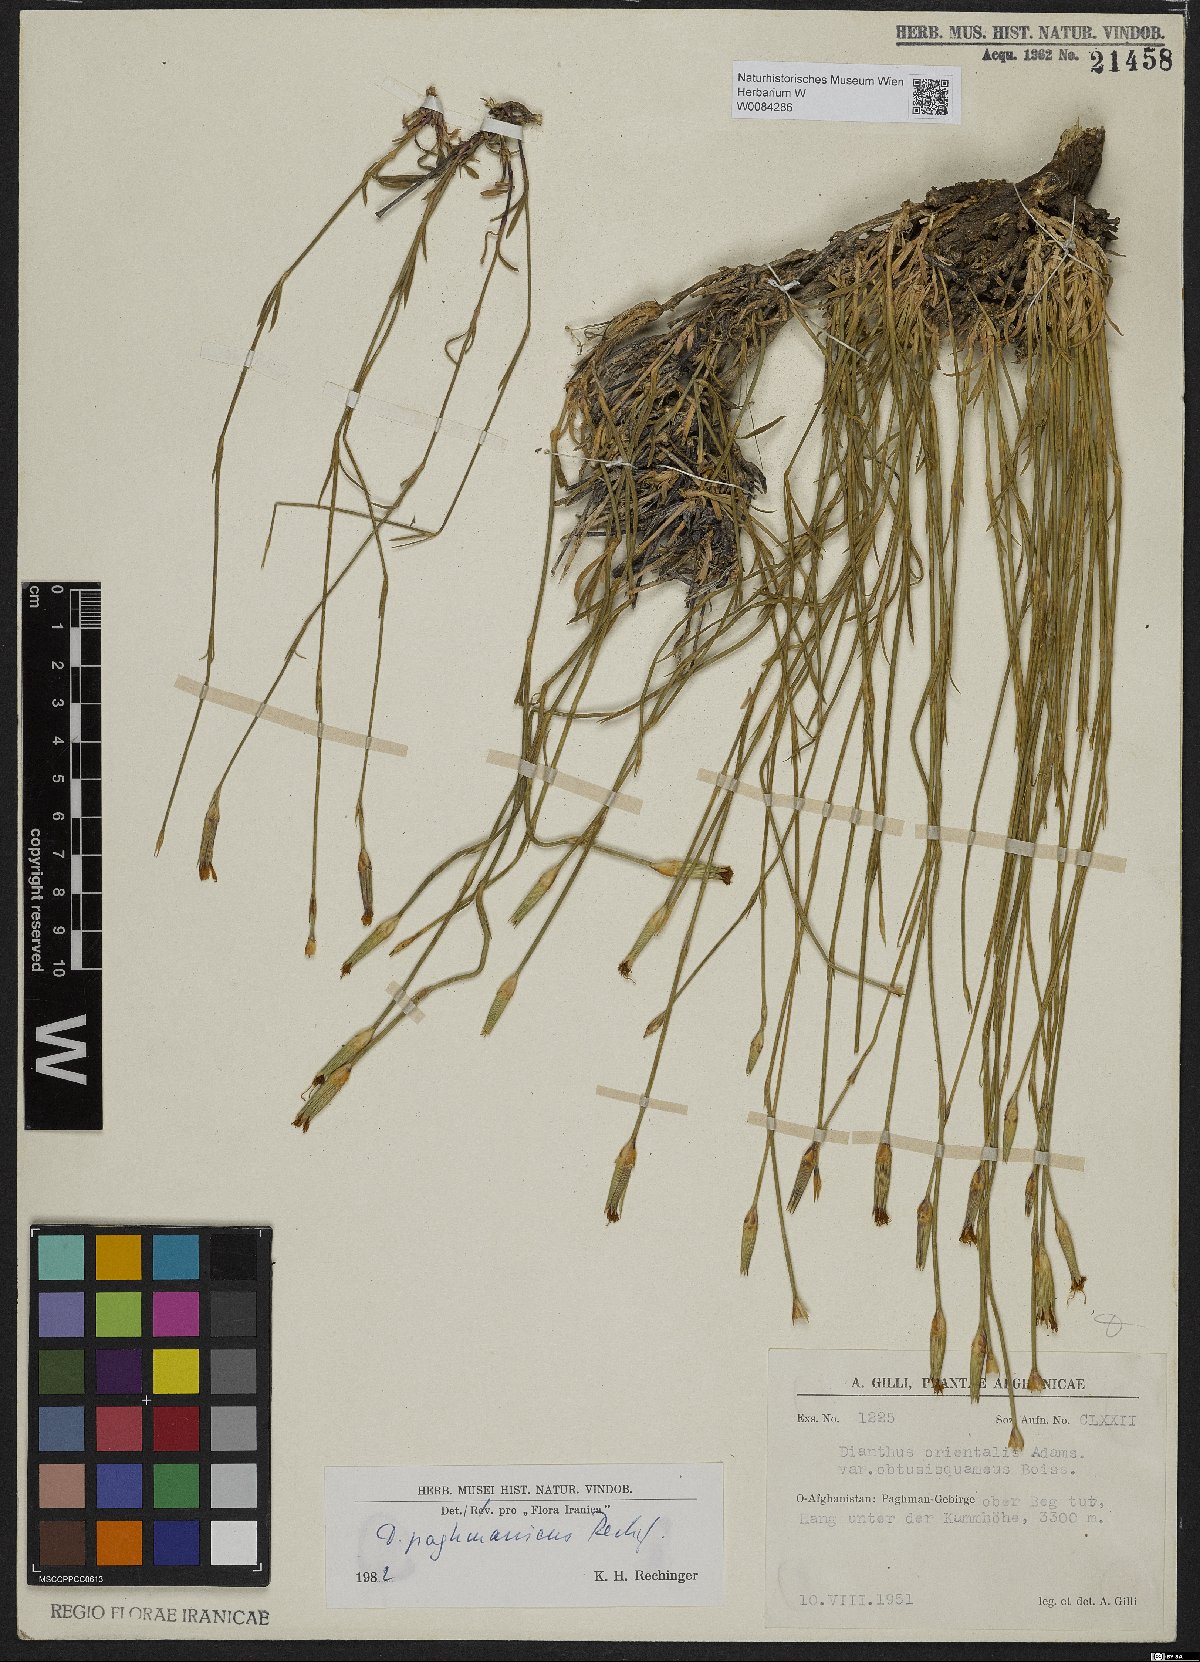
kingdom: Plantae
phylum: Tracheophyta
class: Magnoliopsida
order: Caryophyllales
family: Caryophyllaceae
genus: Dianthus
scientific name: Dianthus paghmanicus
